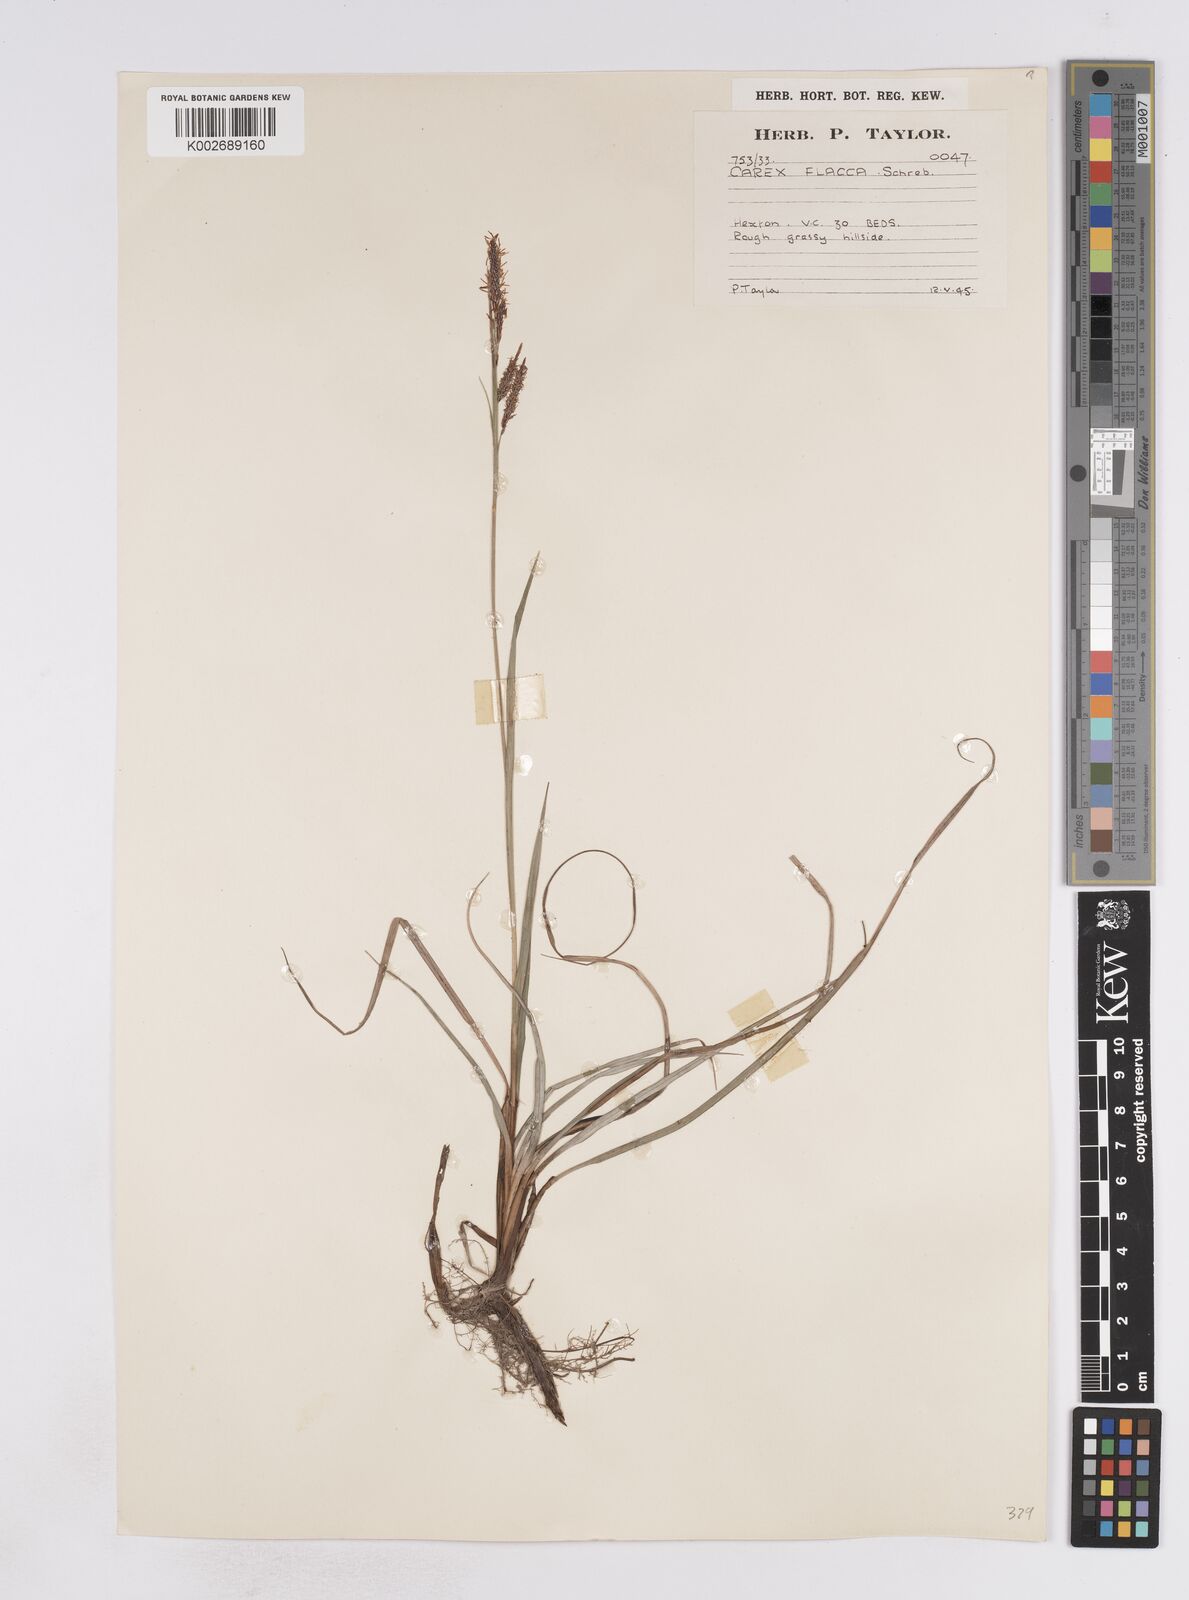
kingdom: Plantae
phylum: Tracheophyta
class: Liliopsida
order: Poales
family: Cyperaceae
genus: Carex
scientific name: Carex flacca
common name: Glaucous sedge
